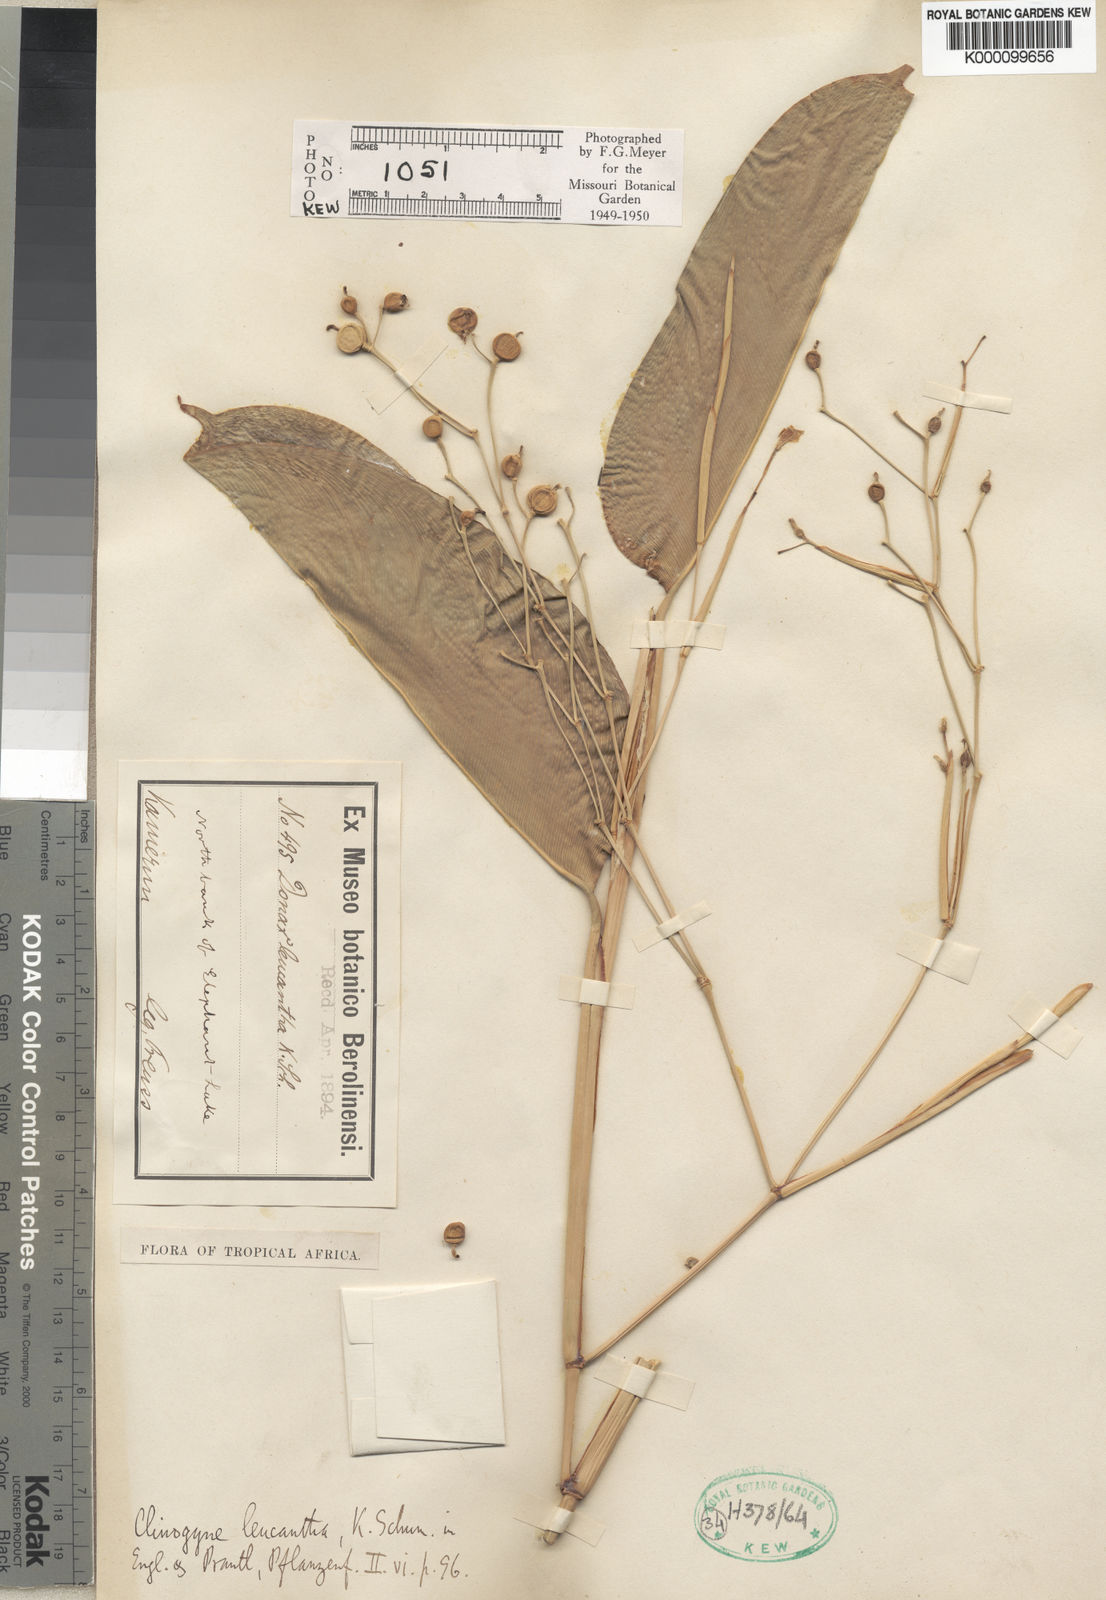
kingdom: Plantae
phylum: Tracheophyta
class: Liliopsida
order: Zingiberales
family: Marantaceae
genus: Marantochloa
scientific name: Marantochloa leucantha
